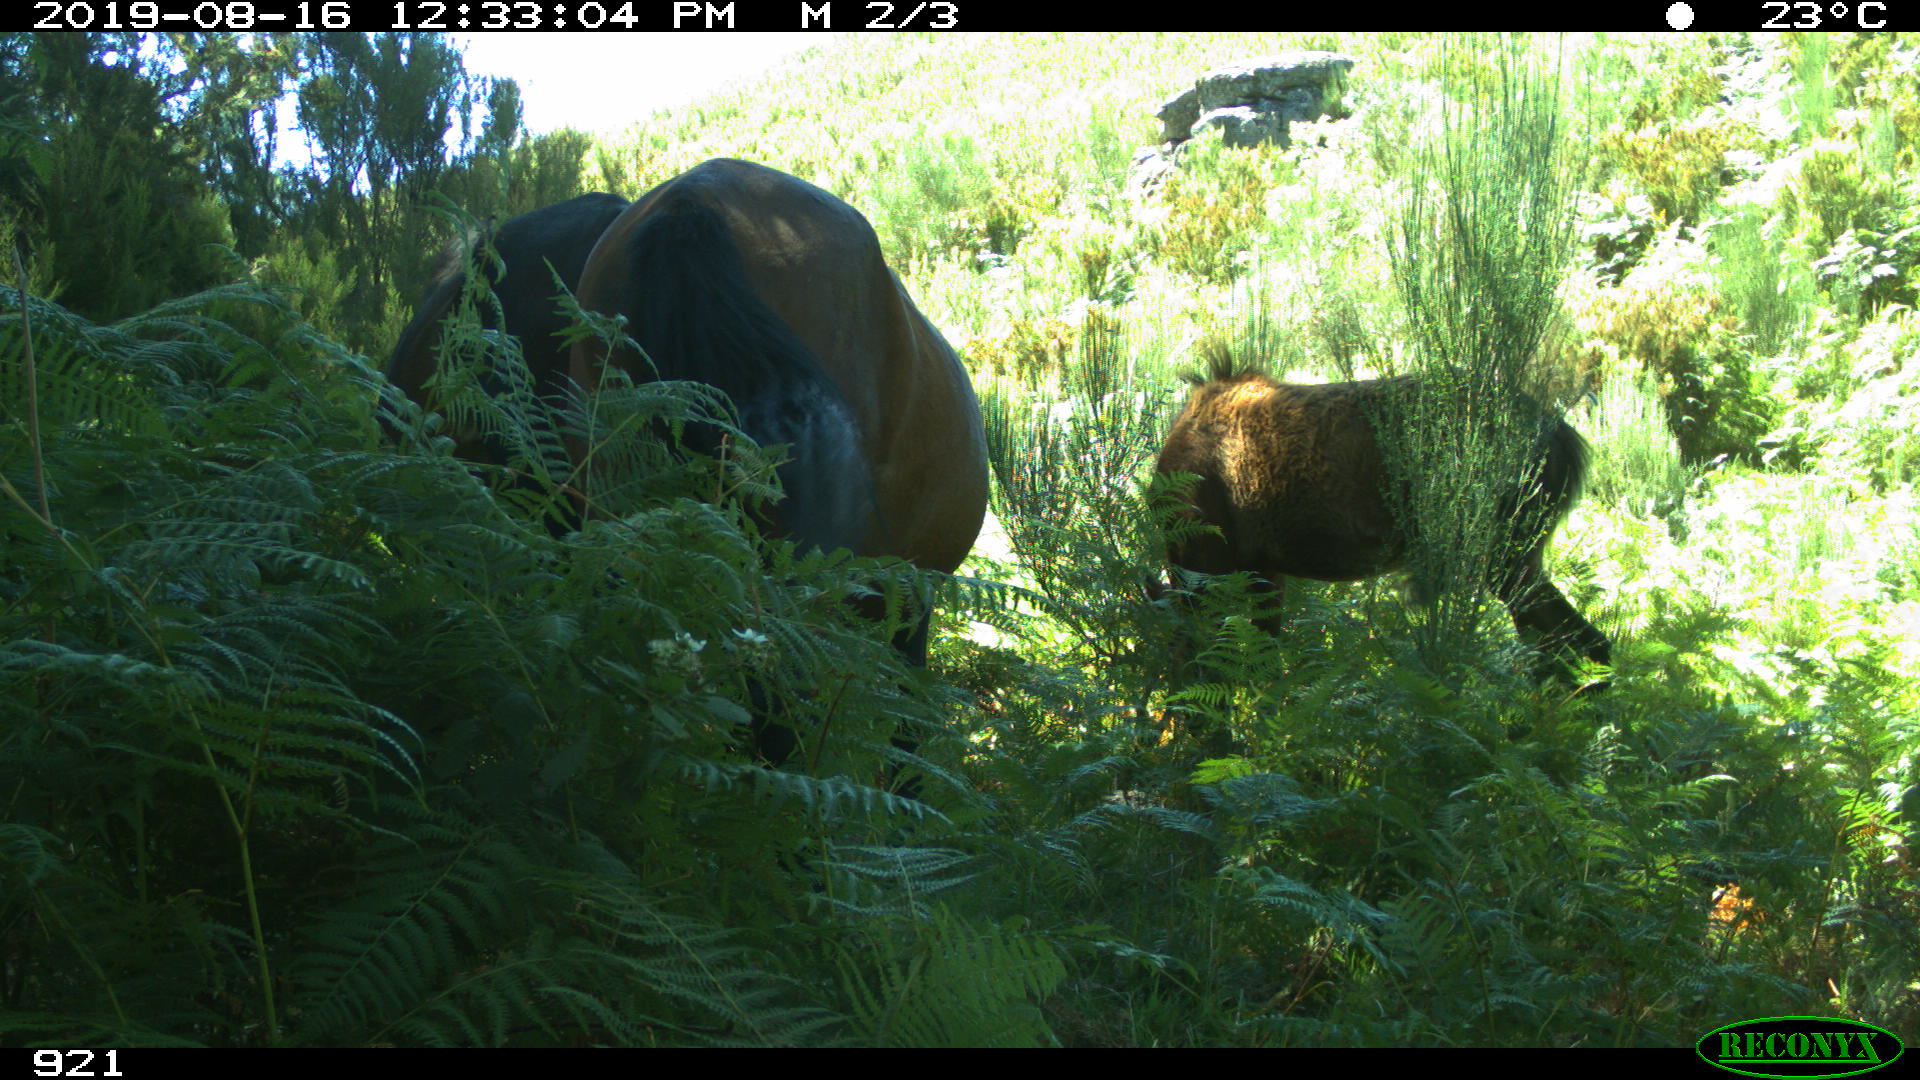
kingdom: Animalia
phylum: Chordata
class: Mammalia
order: Perissodactyla
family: Equidae
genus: Equus
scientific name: Equus caballus
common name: Horse
